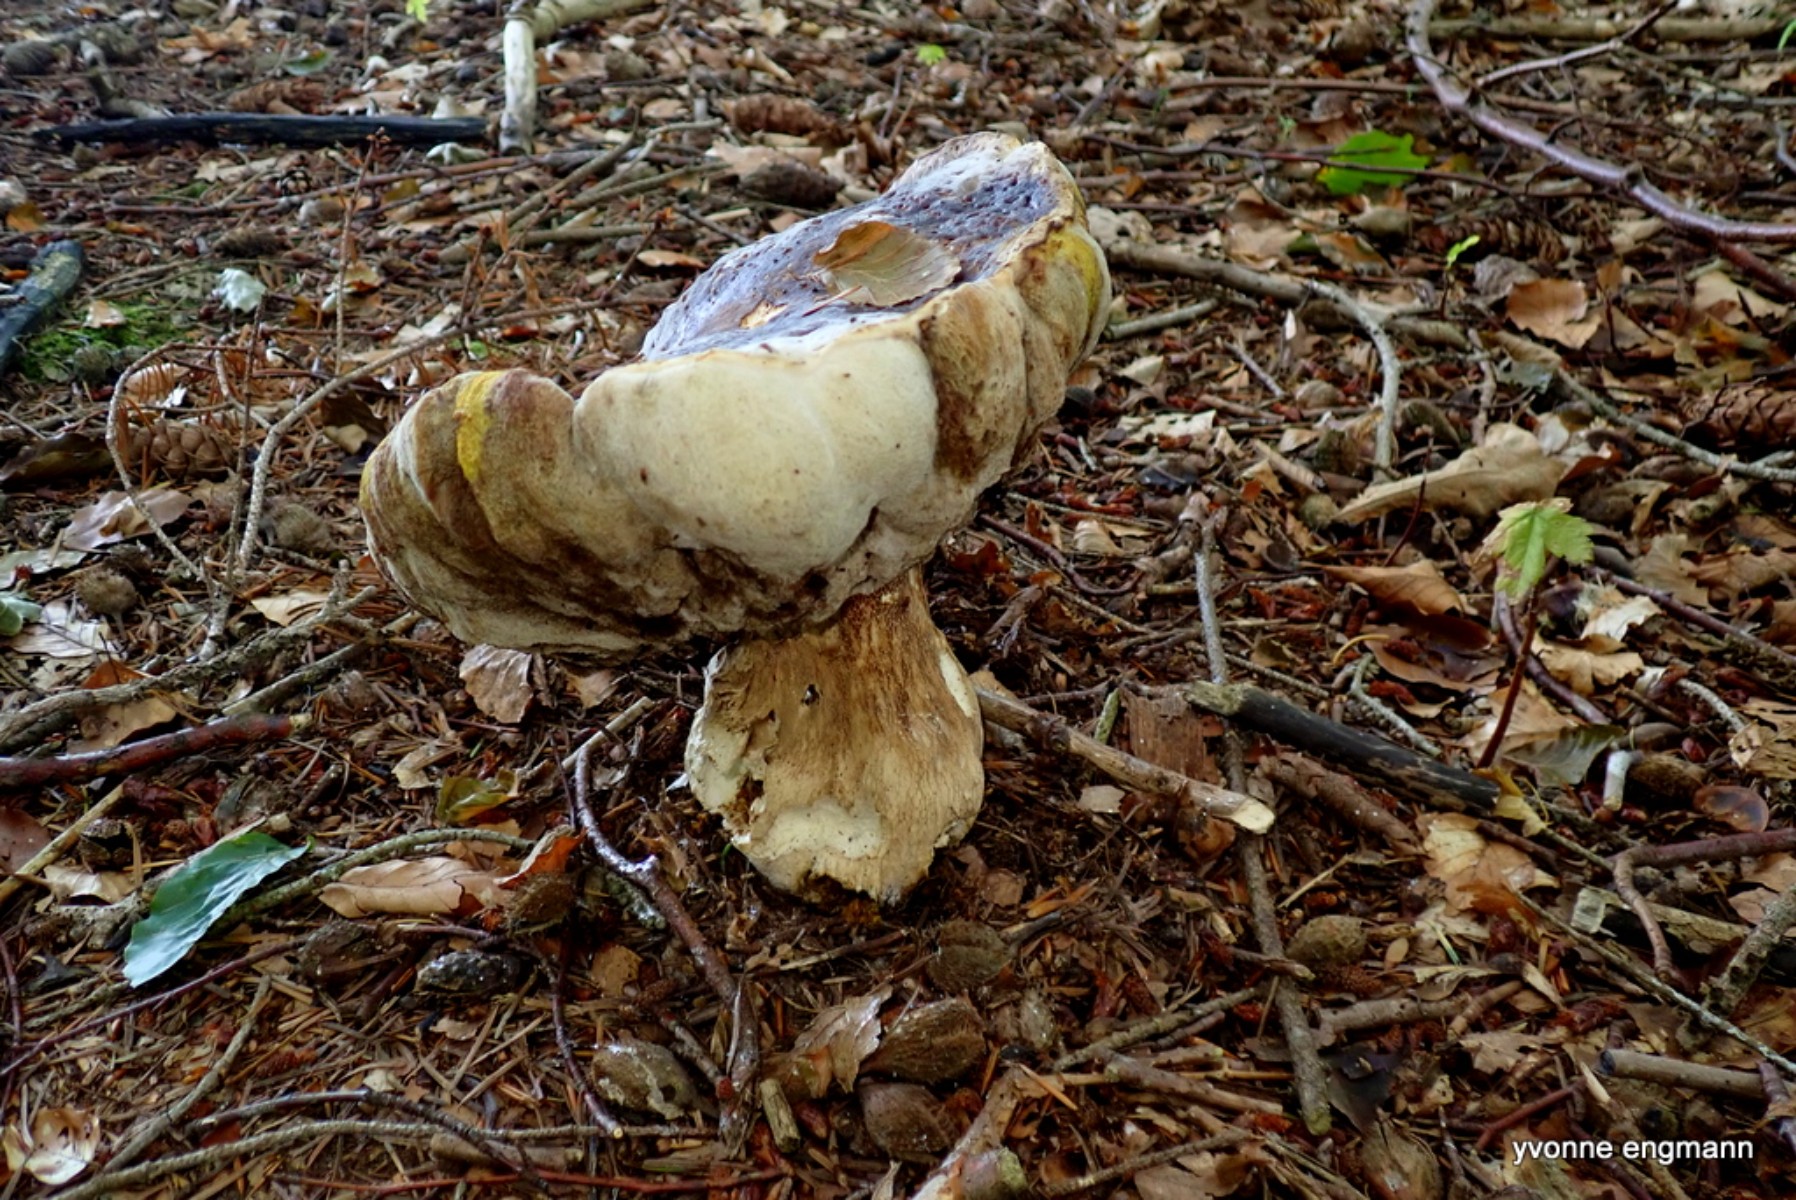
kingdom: Fungi
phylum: Basidiomycota
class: Agaricomycetes
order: Boletales
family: Boletaceae
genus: Boletus
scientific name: Boletus edulis
